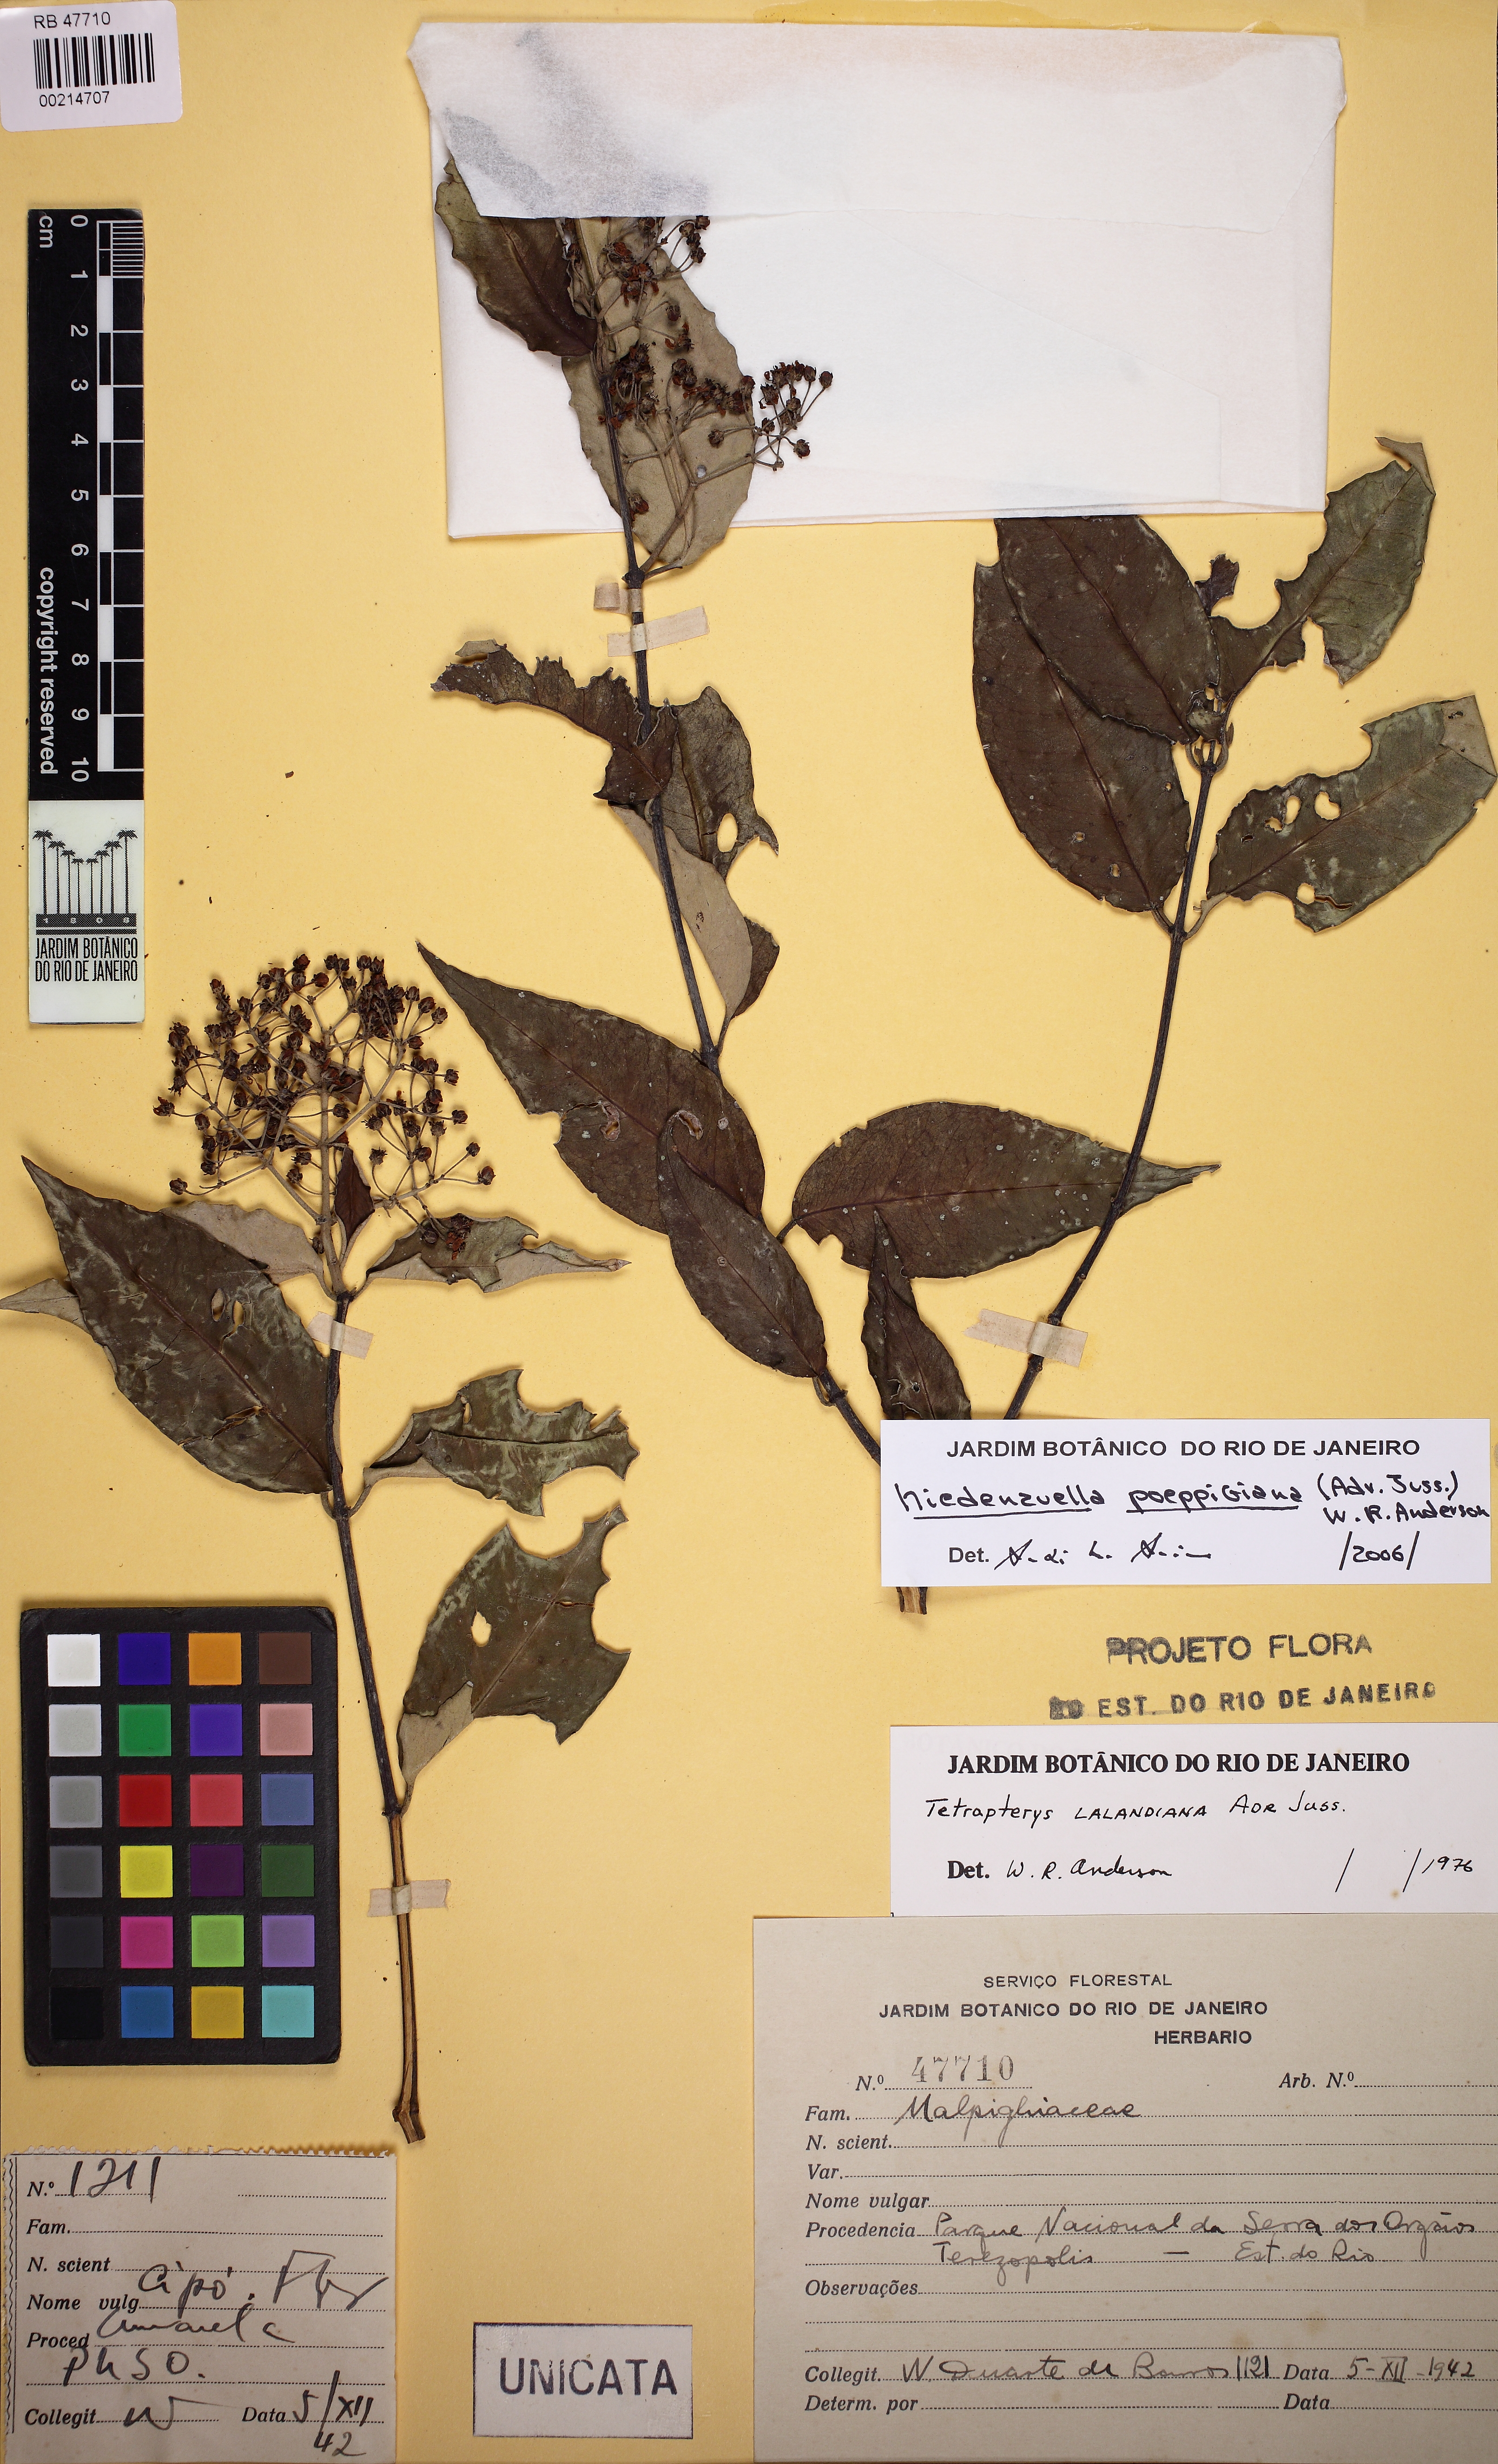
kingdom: Plantae
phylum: Tracheophyta
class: Magnoliopsida
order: Malpighiales
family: Malpighiaceae
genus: Niedenzuella
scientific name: Niedenzuella poeppigiana
